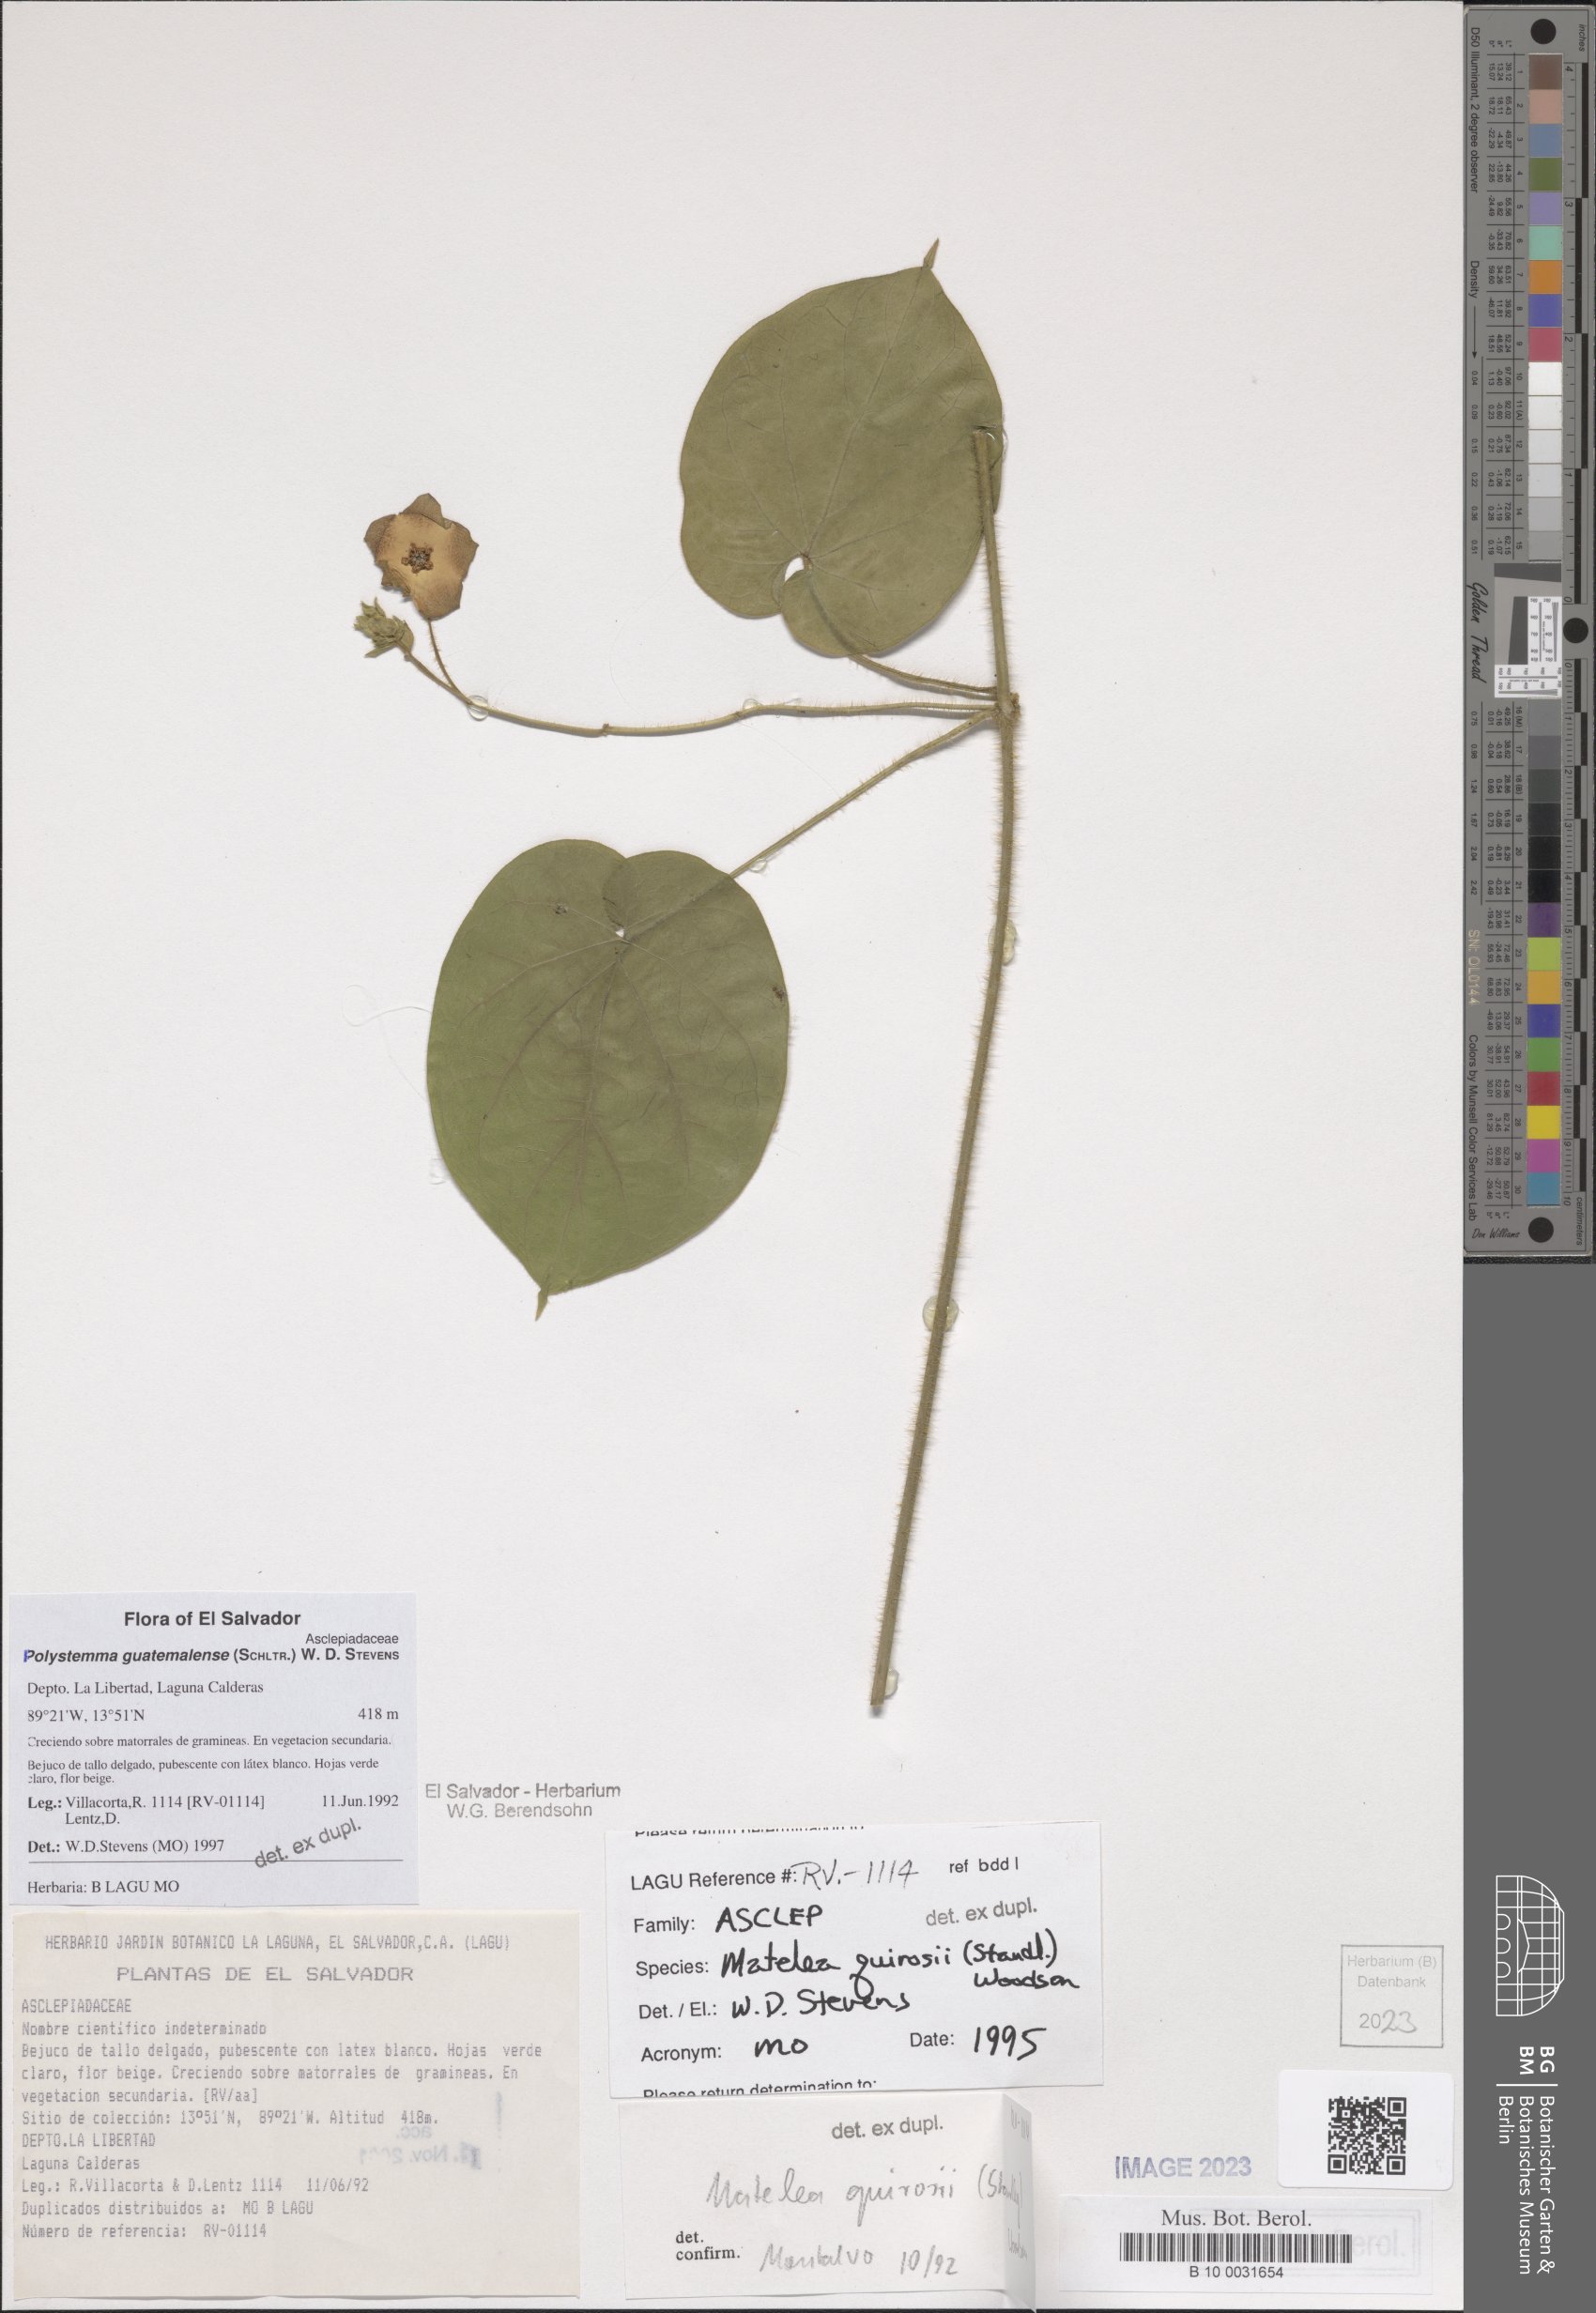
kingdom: Plantae
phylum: Tracheophyta
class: Magnoliopsida
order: Gentianales
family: Apocynaceae
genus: Polystemma
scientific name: Polystemma guatemalense
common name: Arborescente rattan
